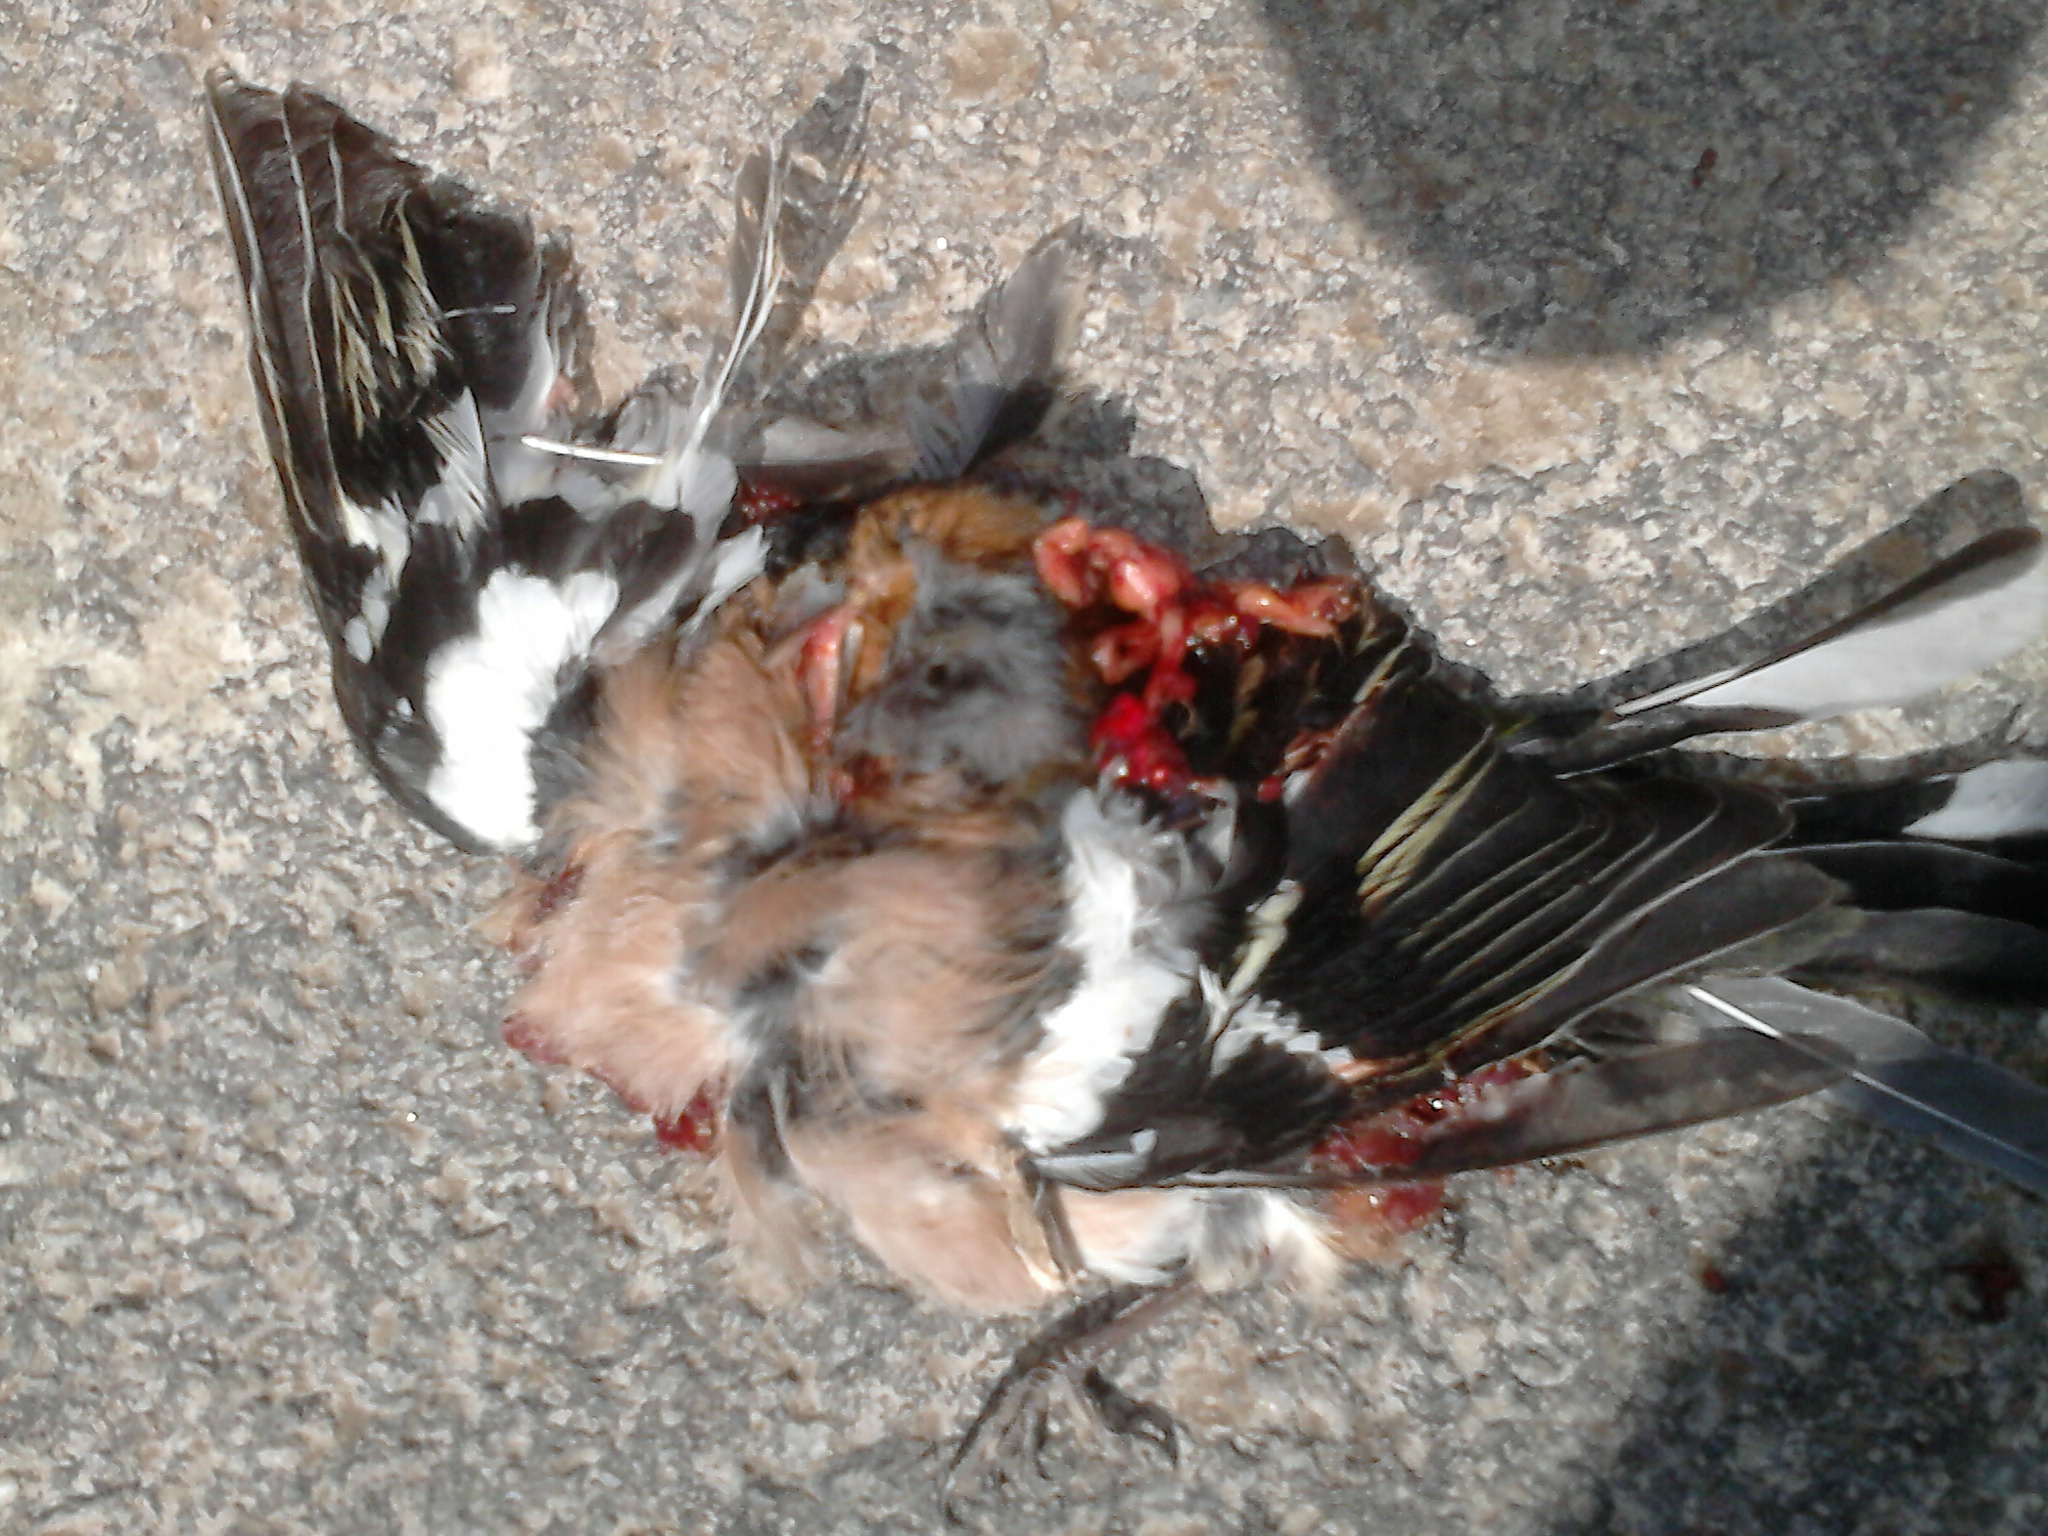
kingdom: Animalia
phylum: Chordata
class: Aves
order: Passeriformes
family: Fringillidae
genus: Fringilla
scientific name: Fringilla coelebs
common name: Common chaffinch
